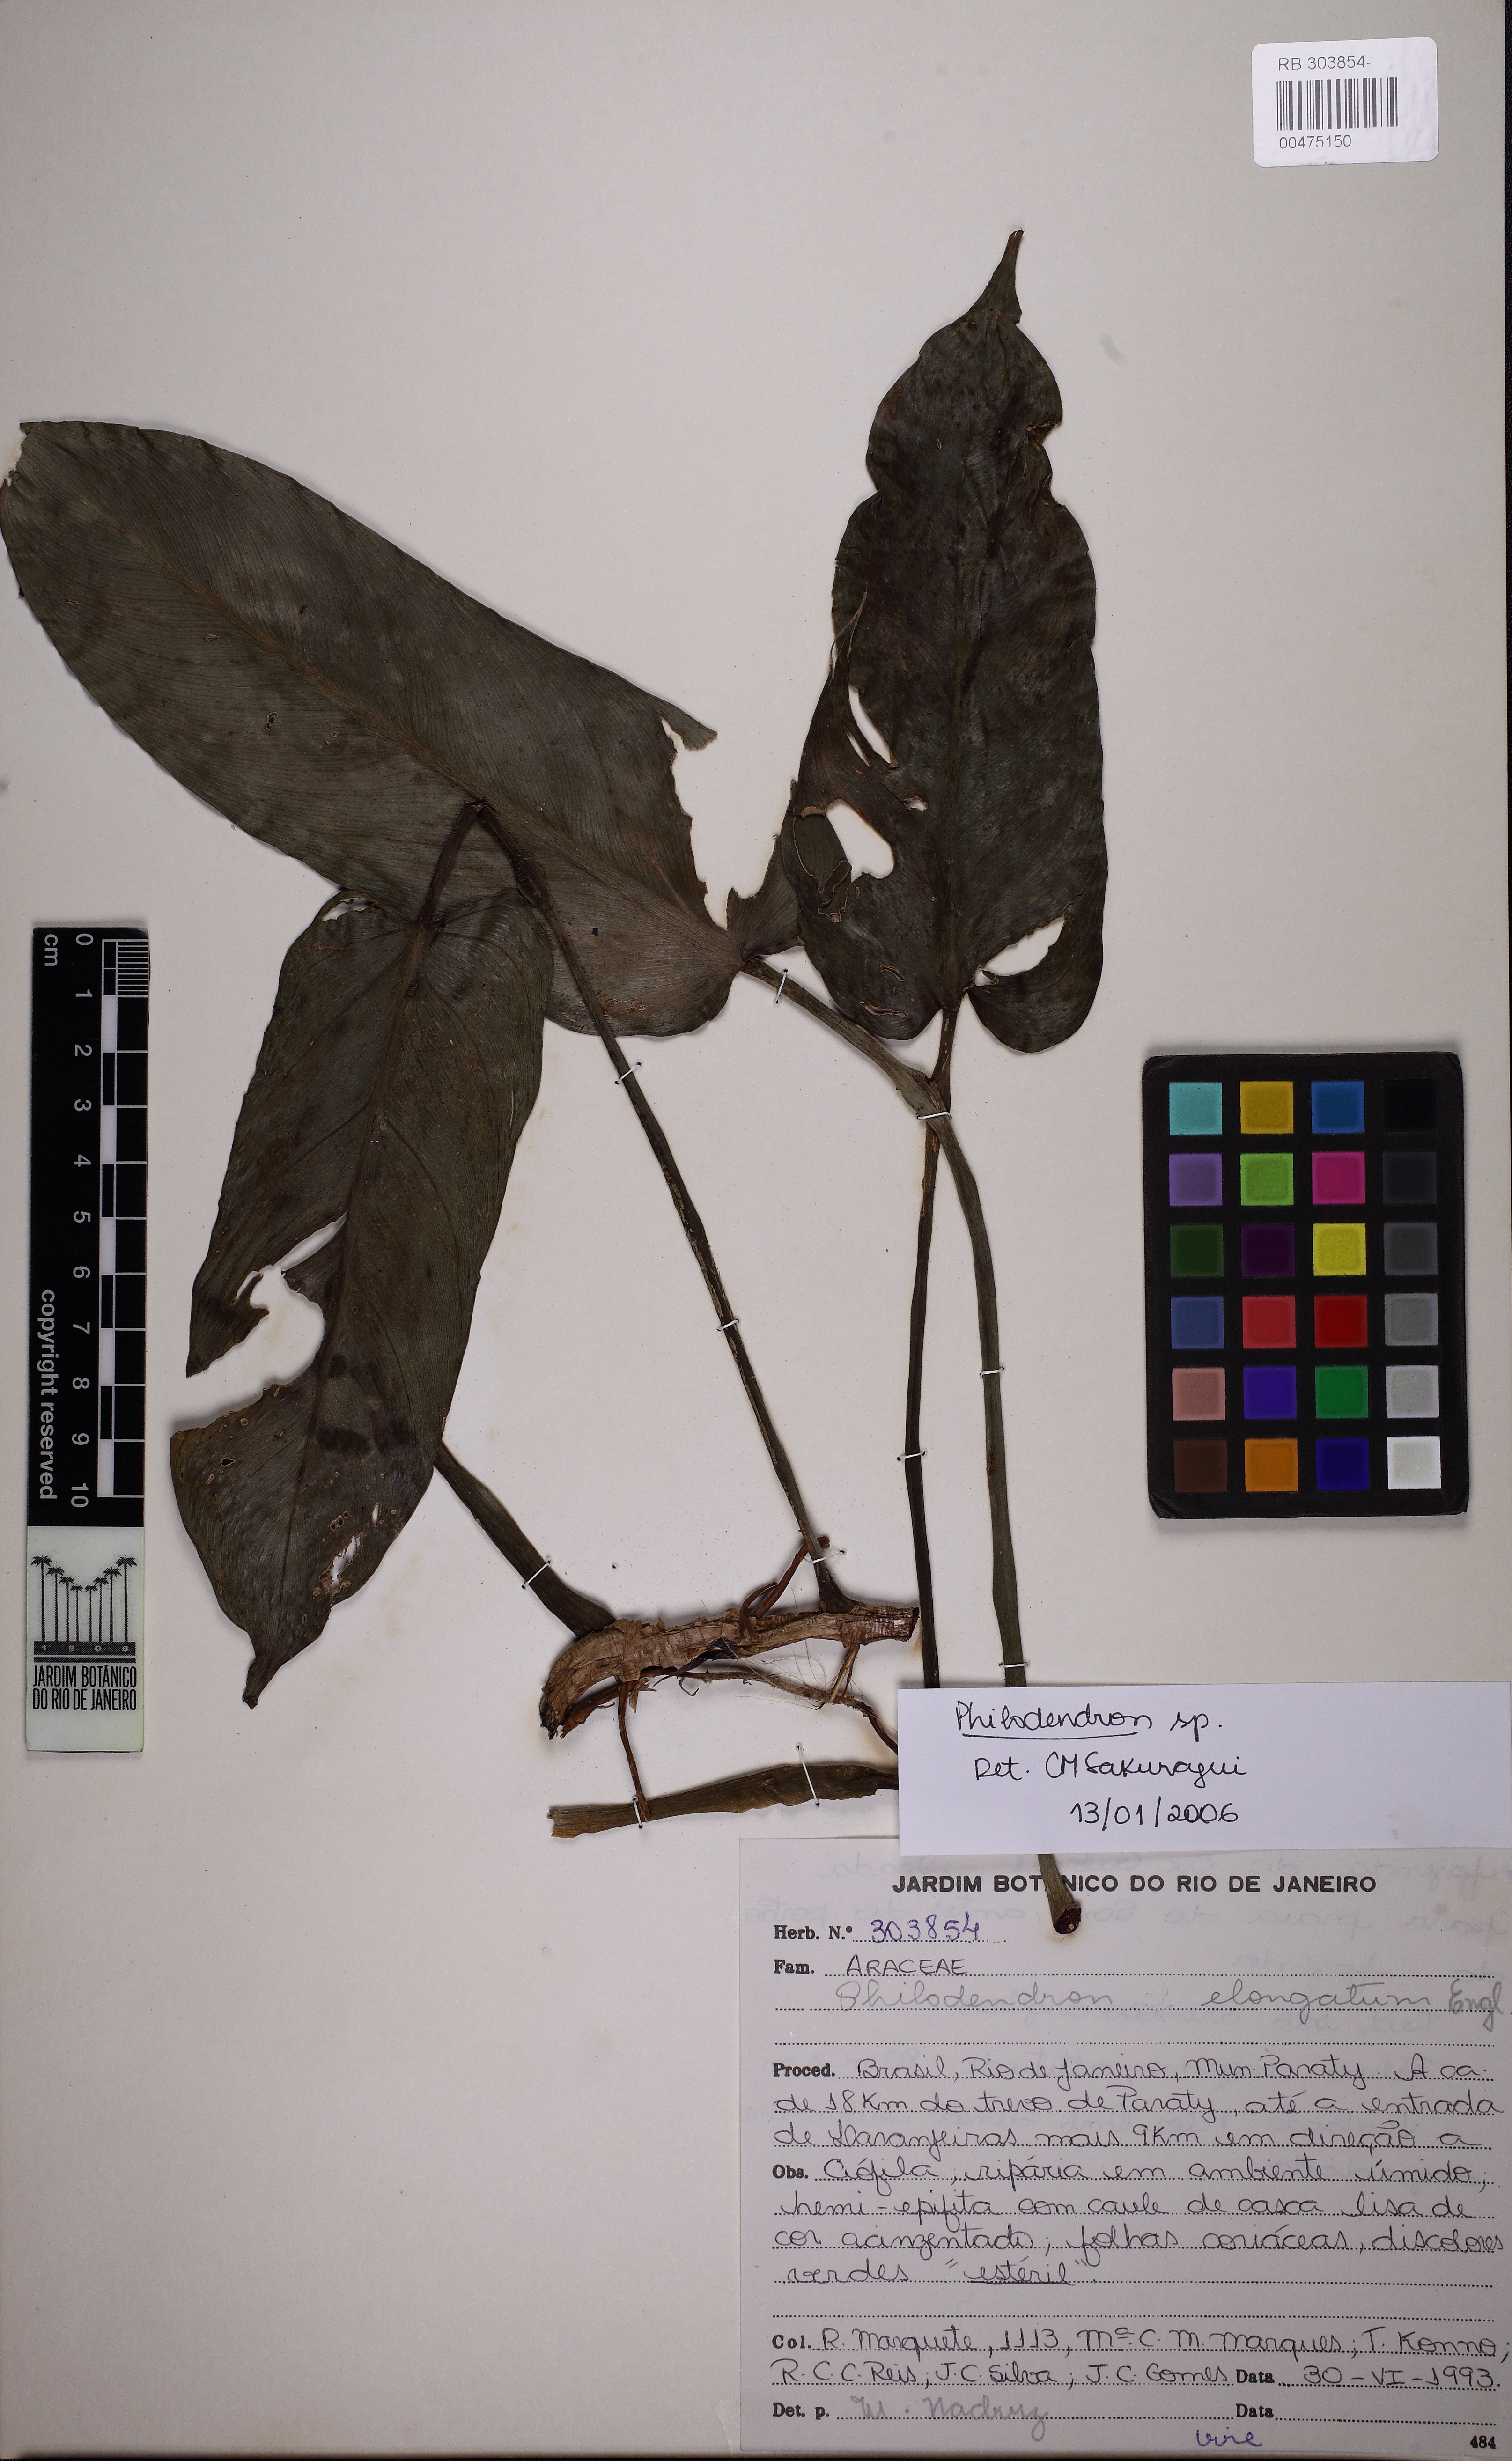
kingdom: Plantae
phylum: Tracheophyta
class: Liliopsida
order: Alismatales
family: Araceae
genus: Philodendron
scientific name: Philodendron
